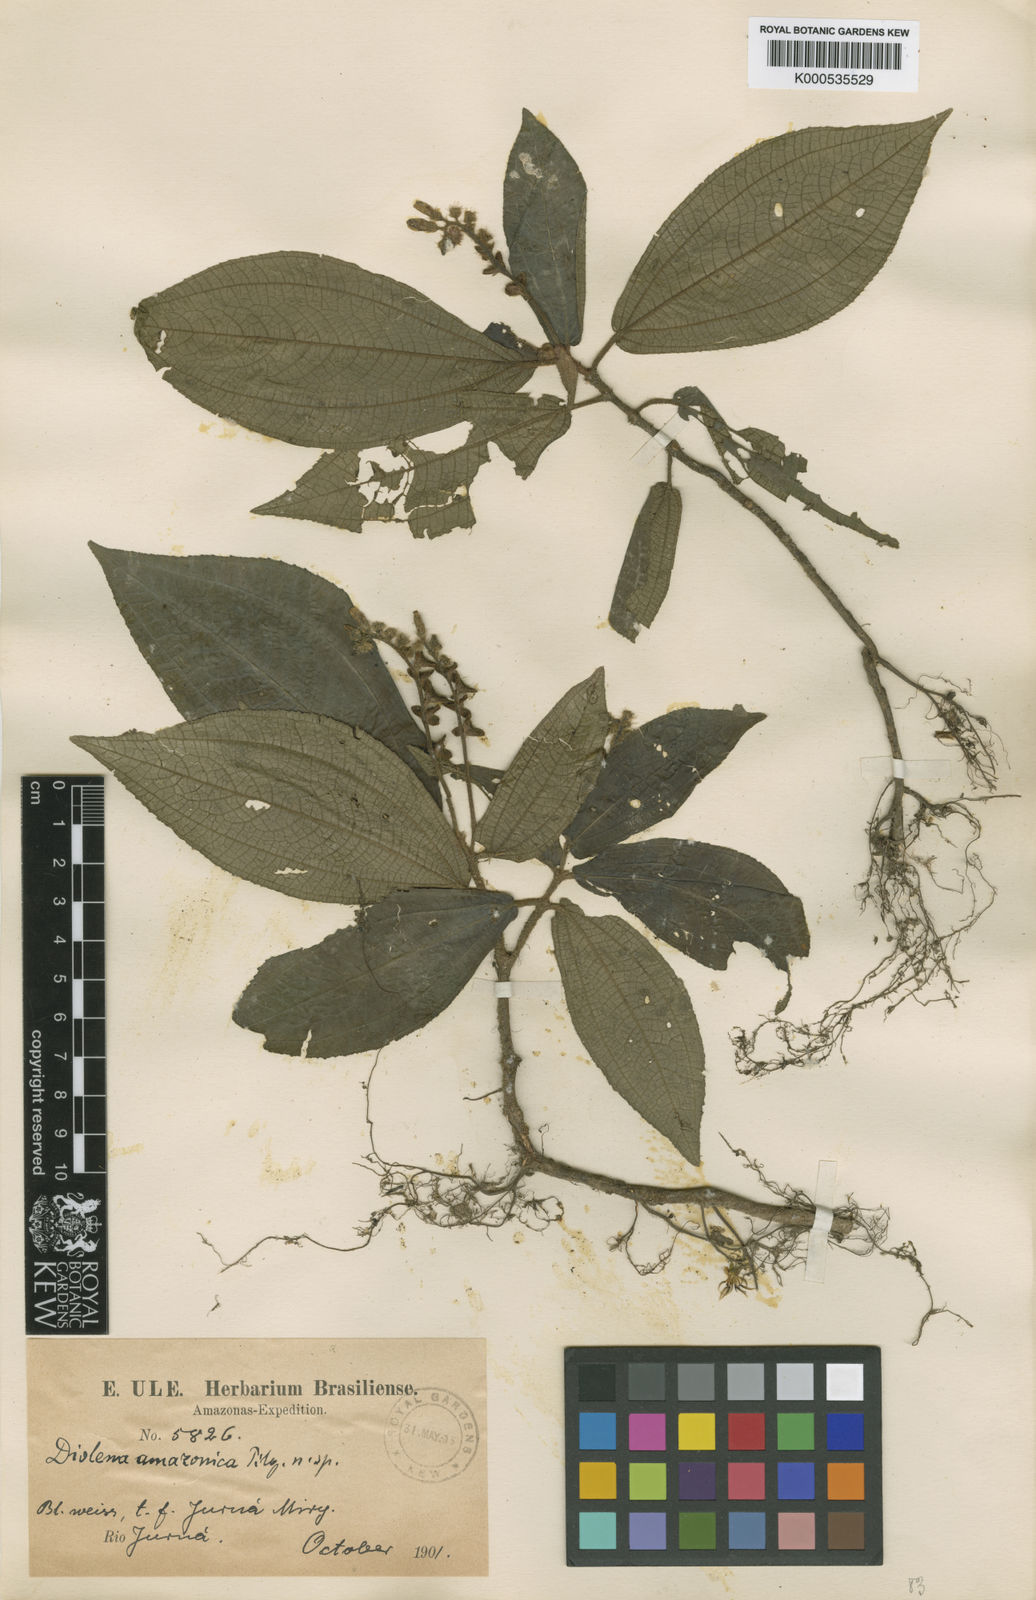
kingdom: Plantae
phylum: Tracheophyta
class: Magnoliopsida
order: Myrtales
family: Melastomataceae
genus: Triolena
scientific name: Triolena amazonica
